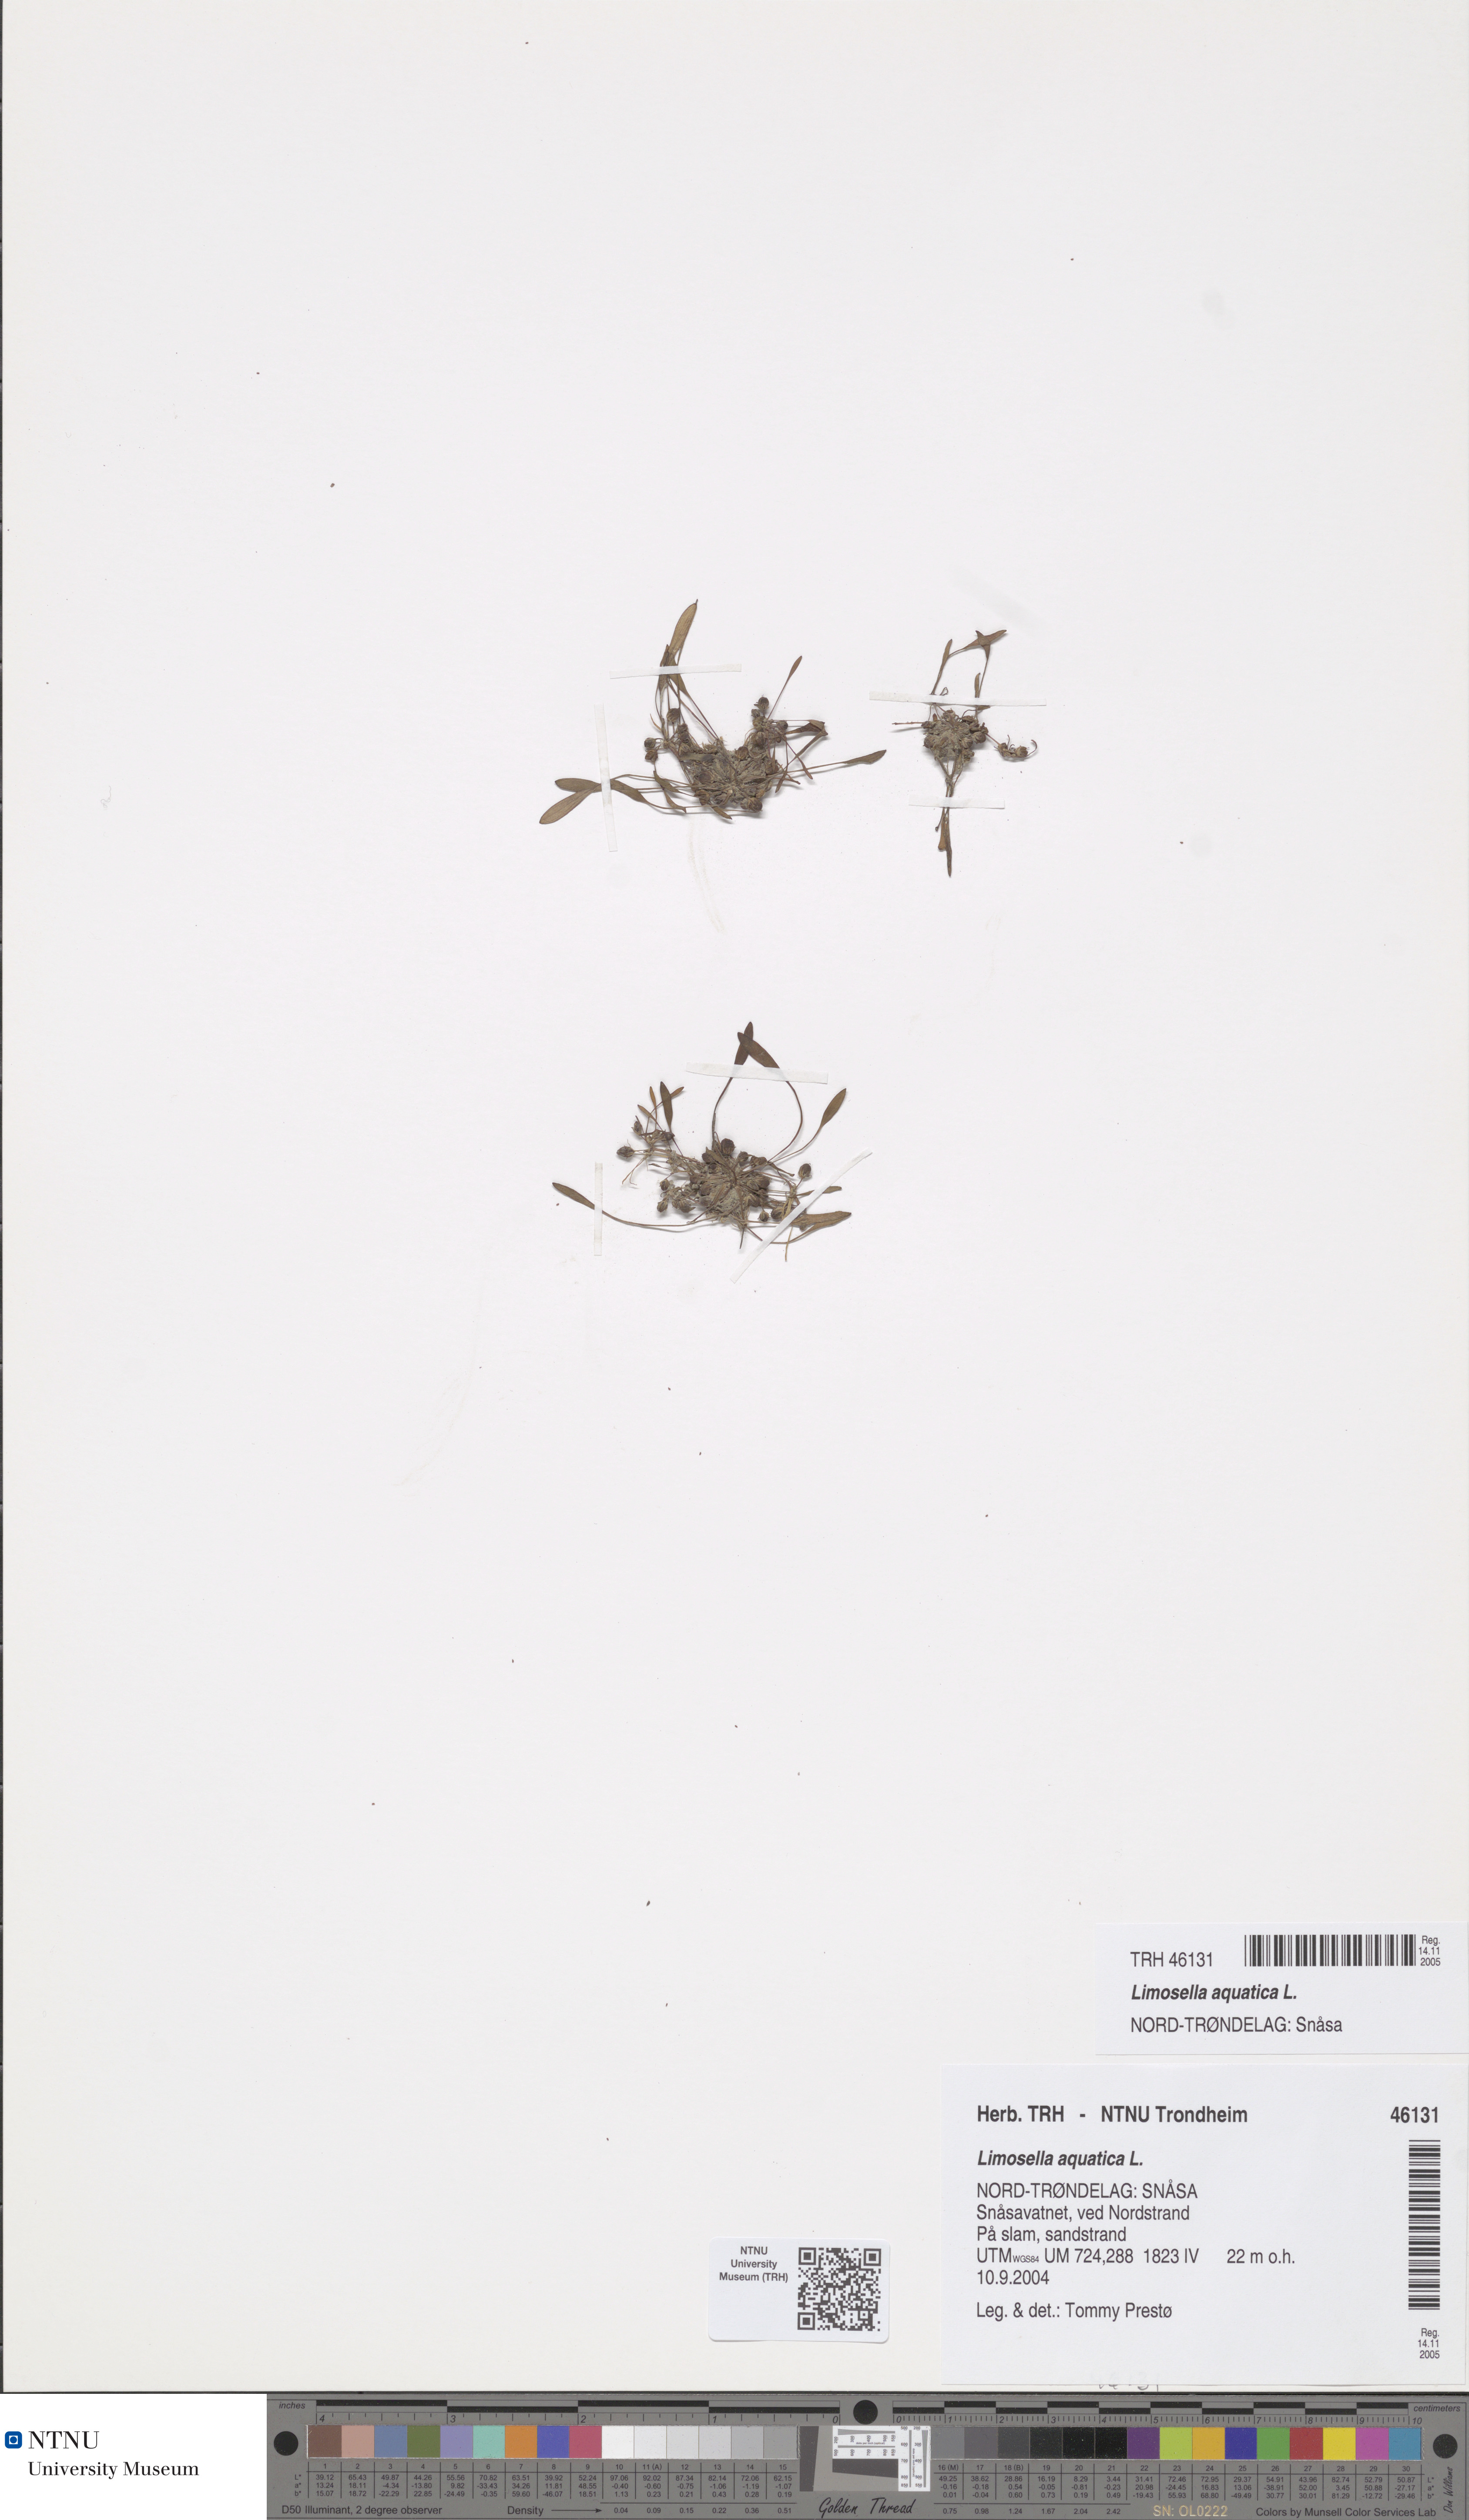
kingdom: Plantae
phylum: Tracheophyta
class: Magnoliopsida
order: Lamiales
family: Scrophulariaceae
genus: Limosella
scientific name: Limosella aquatica
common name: Mudwort
